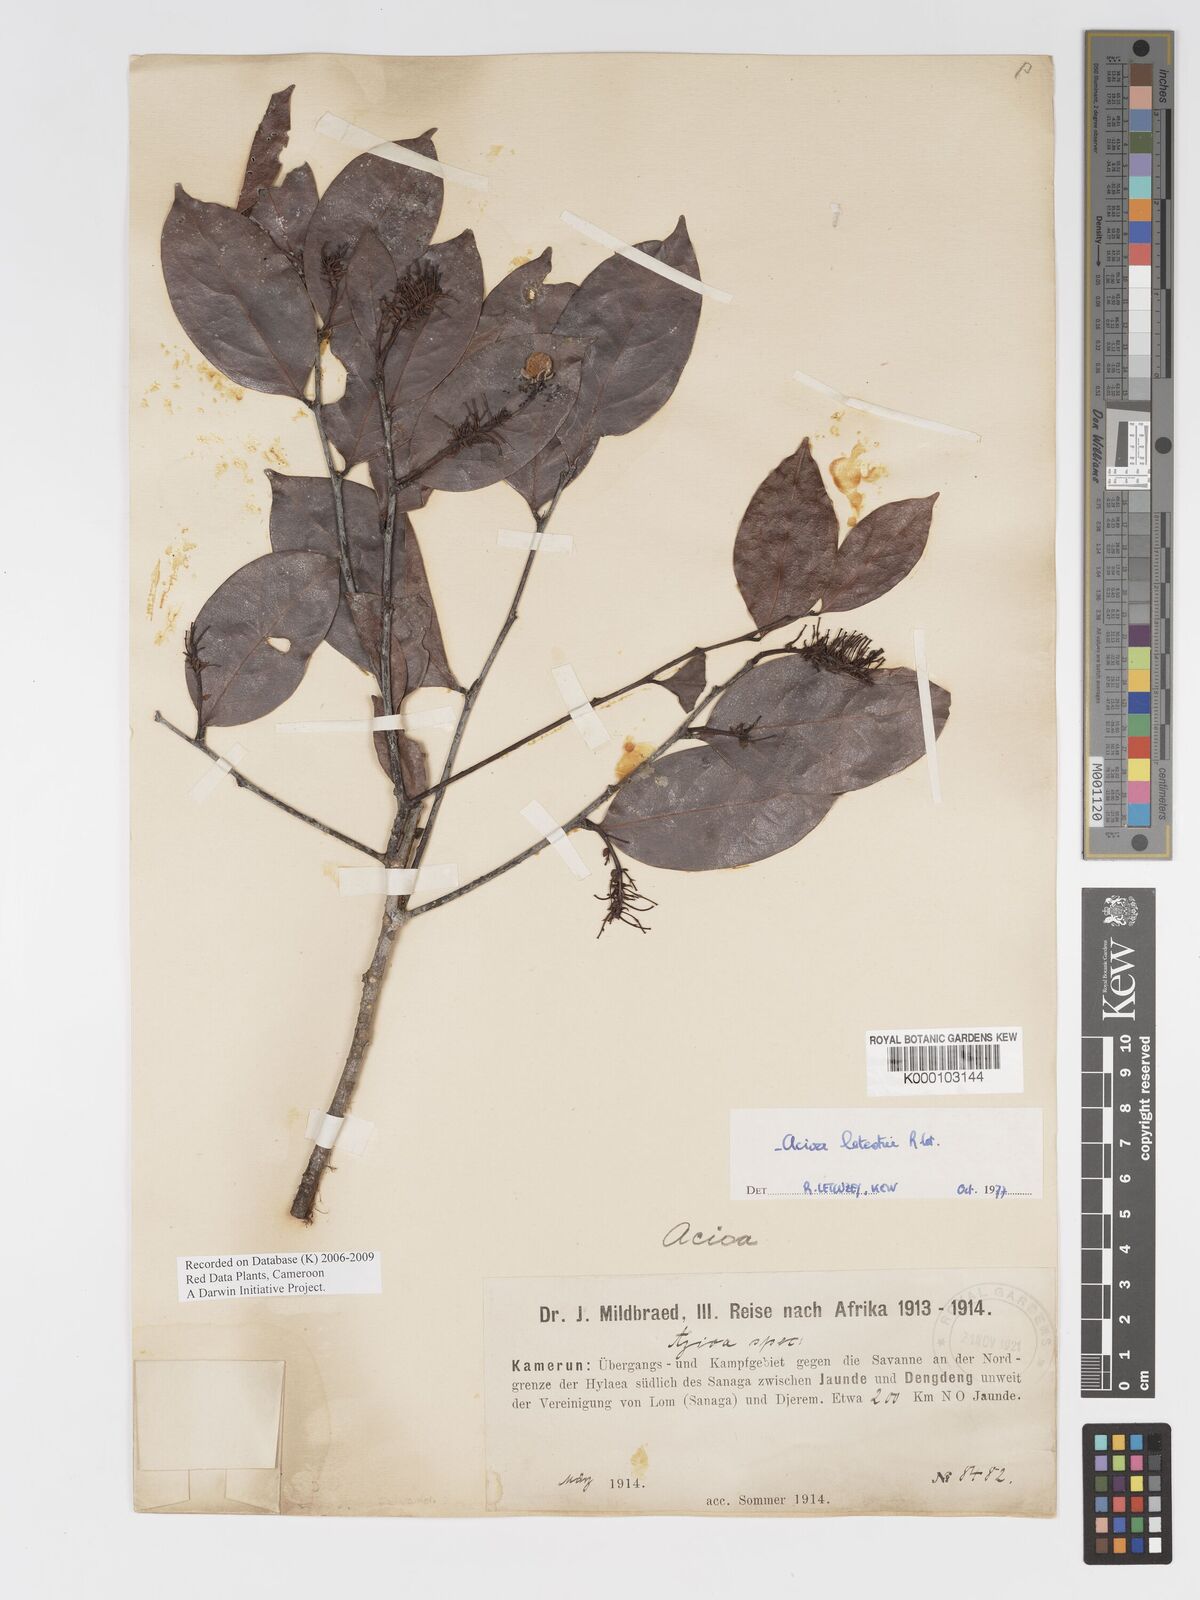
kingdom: Plantae
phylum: Tracheophyta
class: Magnoliopsida
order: Malpighiales
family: Chrysobalanaceae
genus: Dactyladenia
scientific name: Dactyladenia letestui
